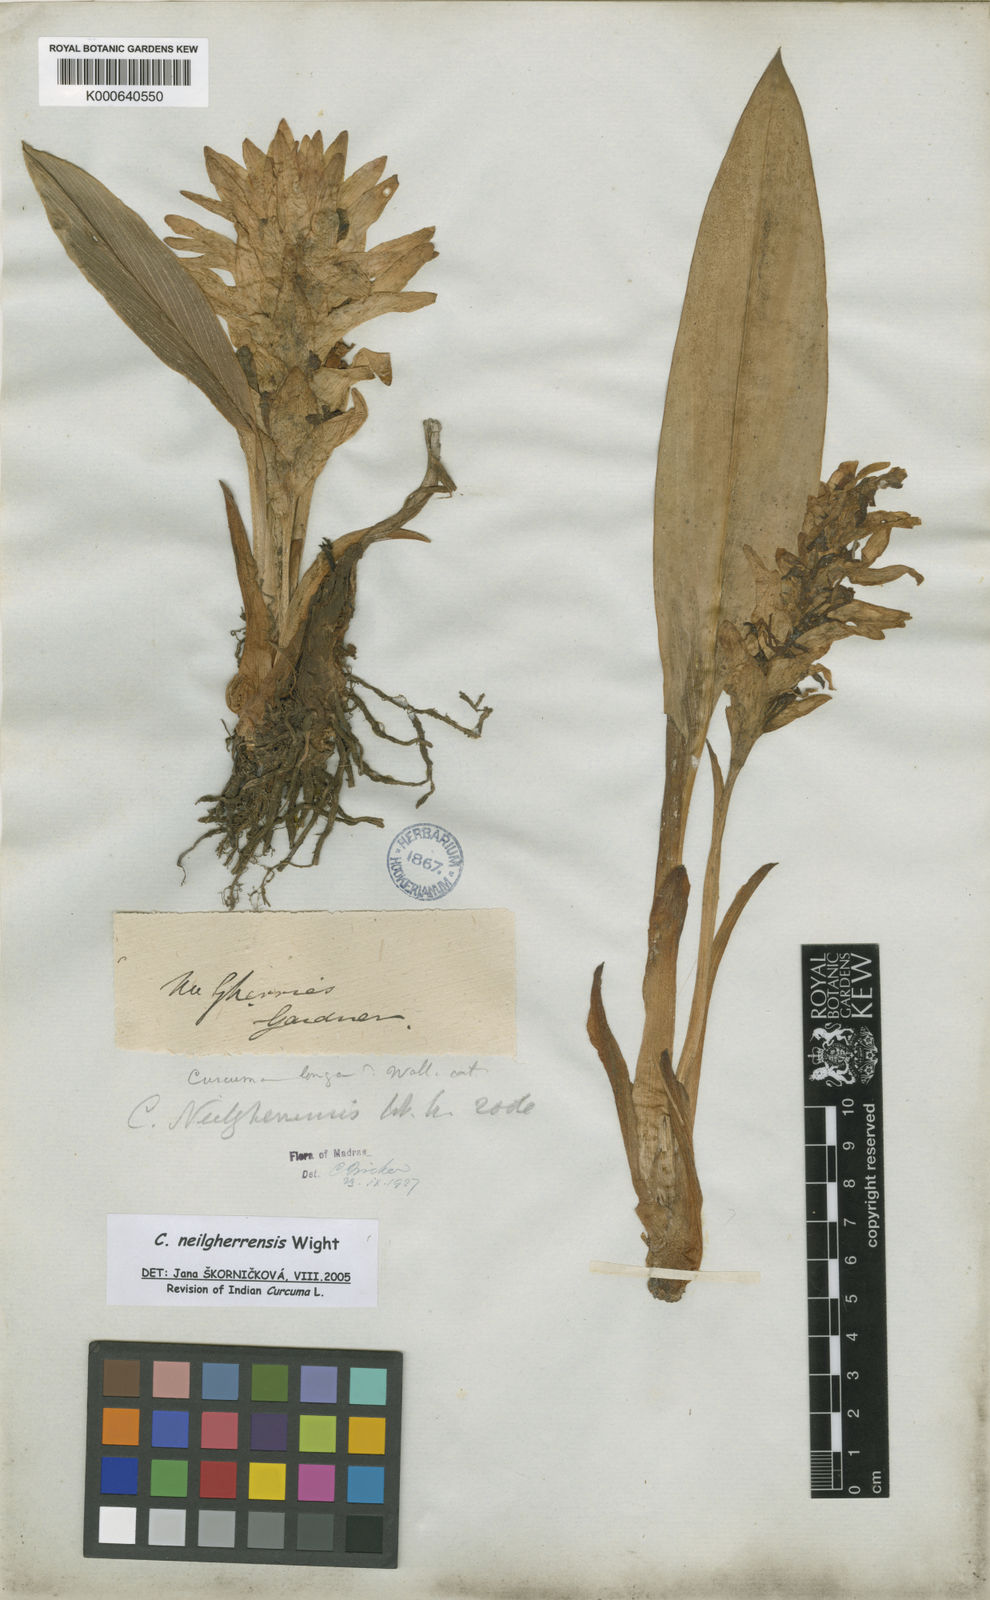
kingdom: Plantae
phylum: Tracheophyta
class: Liliopsida
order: Zingiberales
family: Zingiberaceae
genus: Curcuma
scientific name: Curcuma neilgherrensis
